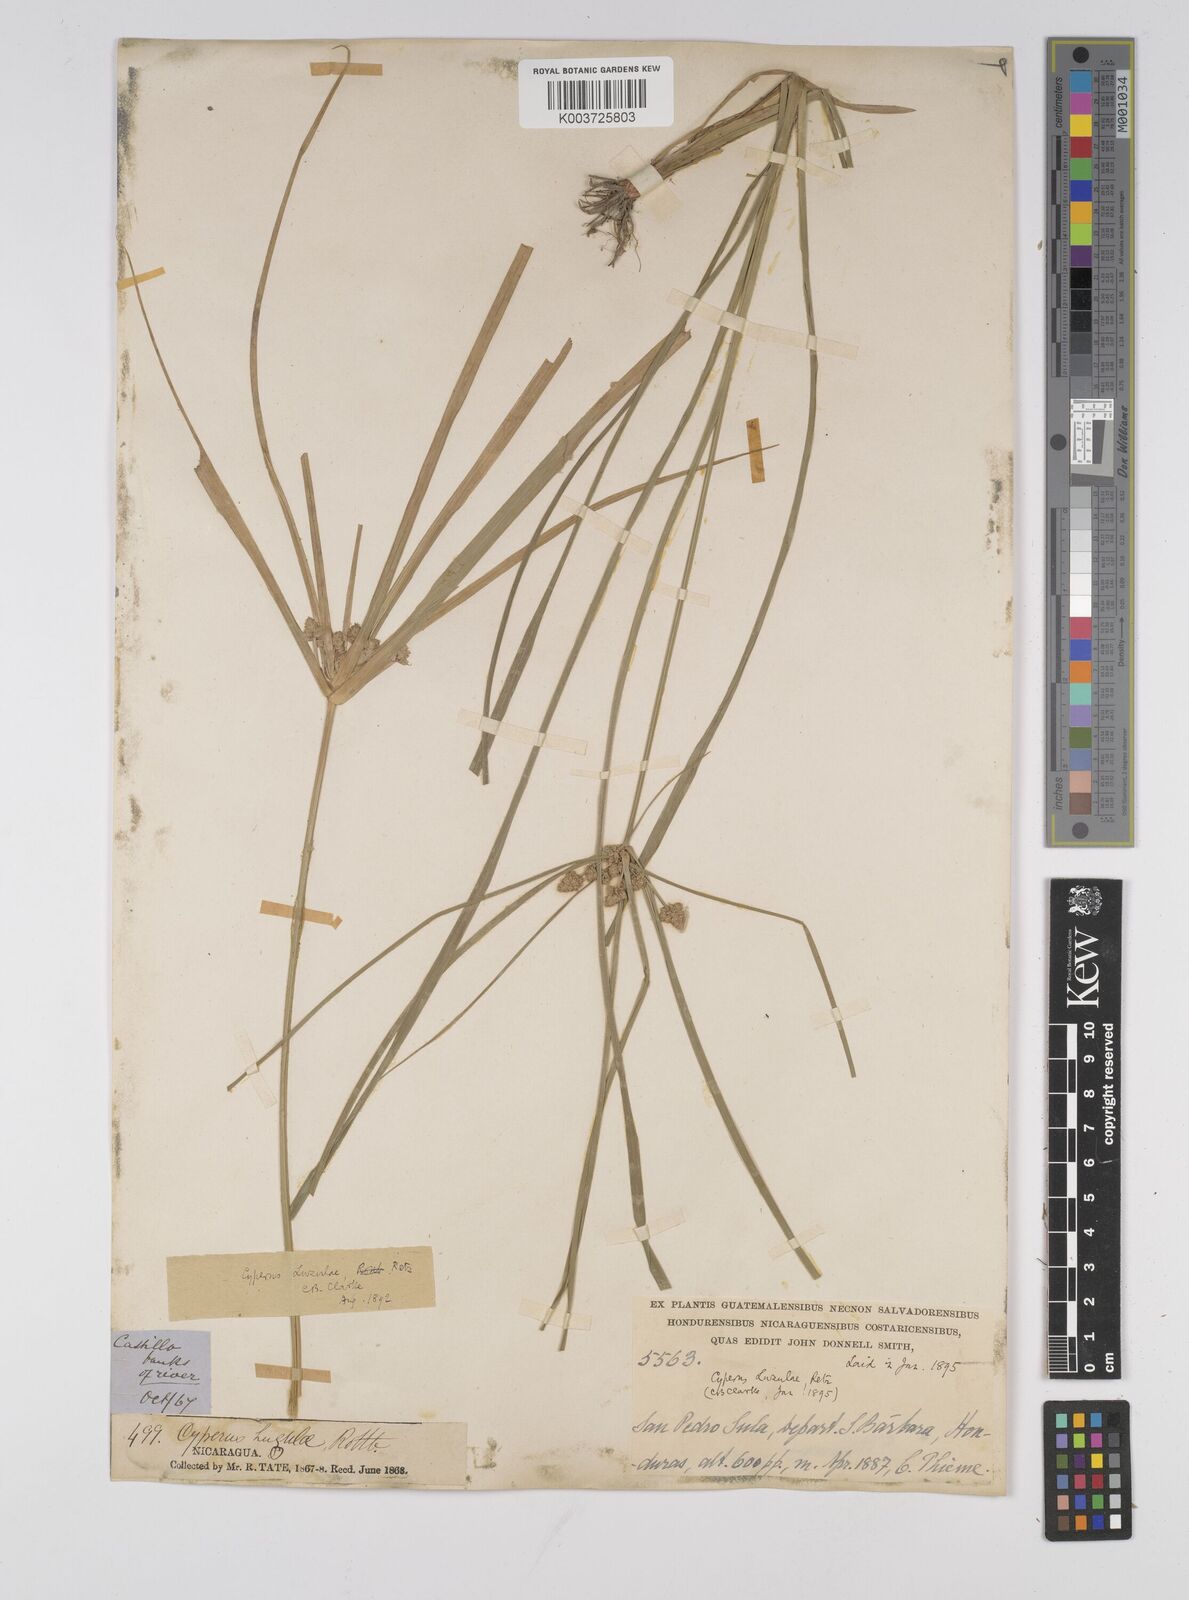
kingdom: Plantae
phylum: Tracheophyta
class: Liliopsida
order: Poales
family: Cyperaceae
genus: Cyperus
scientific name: Cyperus luzulae
